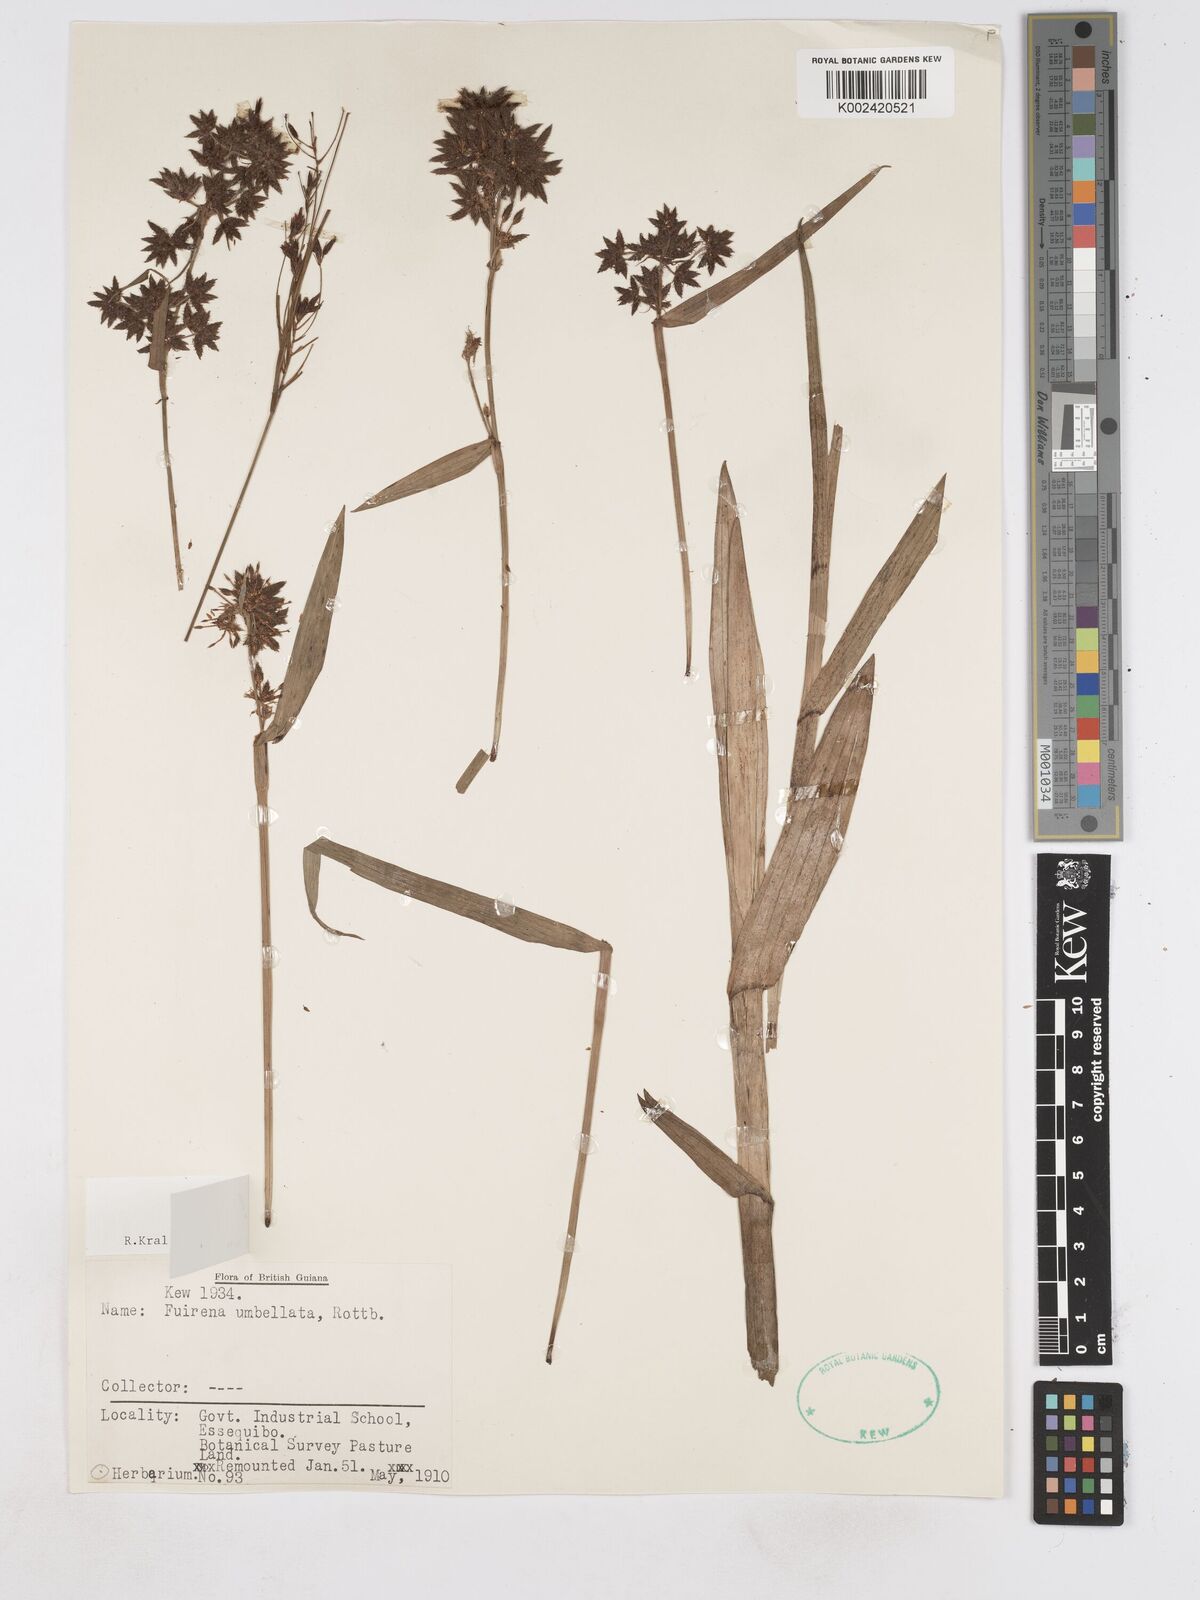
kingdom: Plantae
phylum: Tracheophyta
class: Liliopsida
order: Poales
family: Cyperaceae
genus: Fuirena
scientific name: Fuirena umbellata
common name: Yefen
